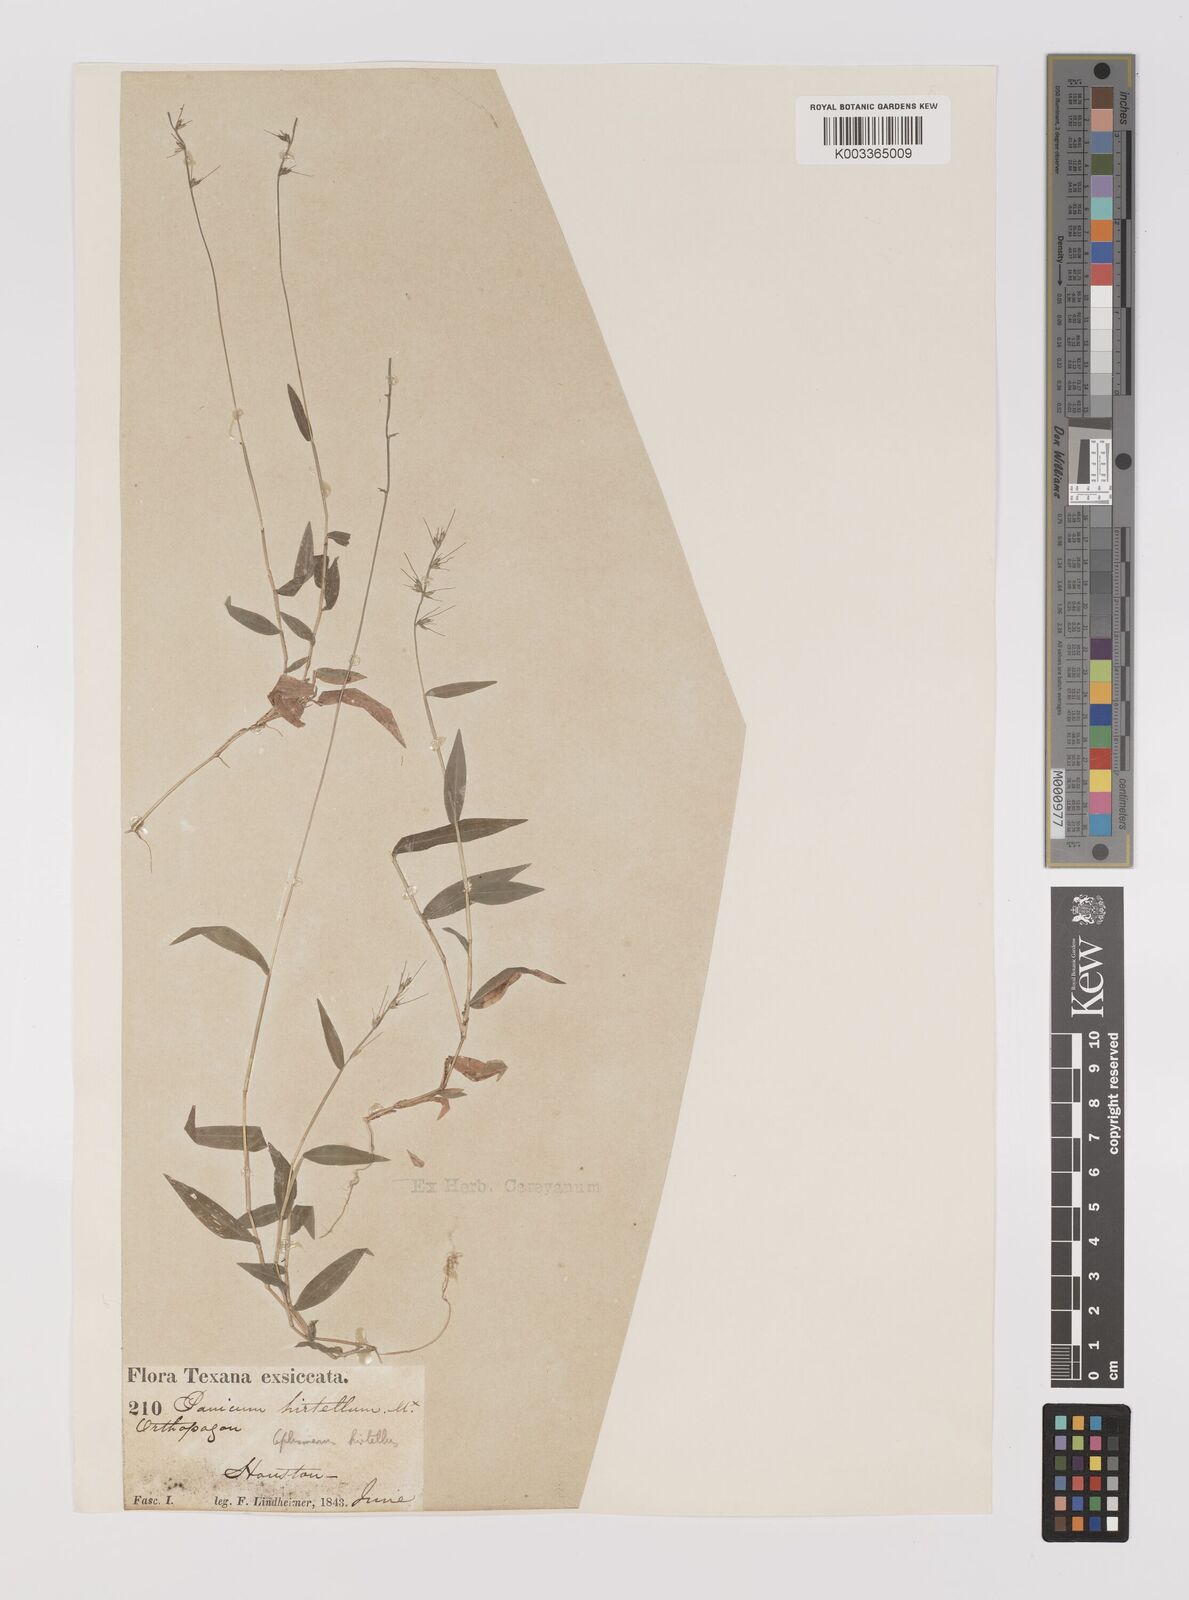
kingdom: Plantae
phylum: Tracheophyta
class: Liliopsida
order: Poales
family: Poaceae
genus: Oplismenus
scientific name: Oplismenus undulatifolius
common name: Wavyleaf basketgrass
